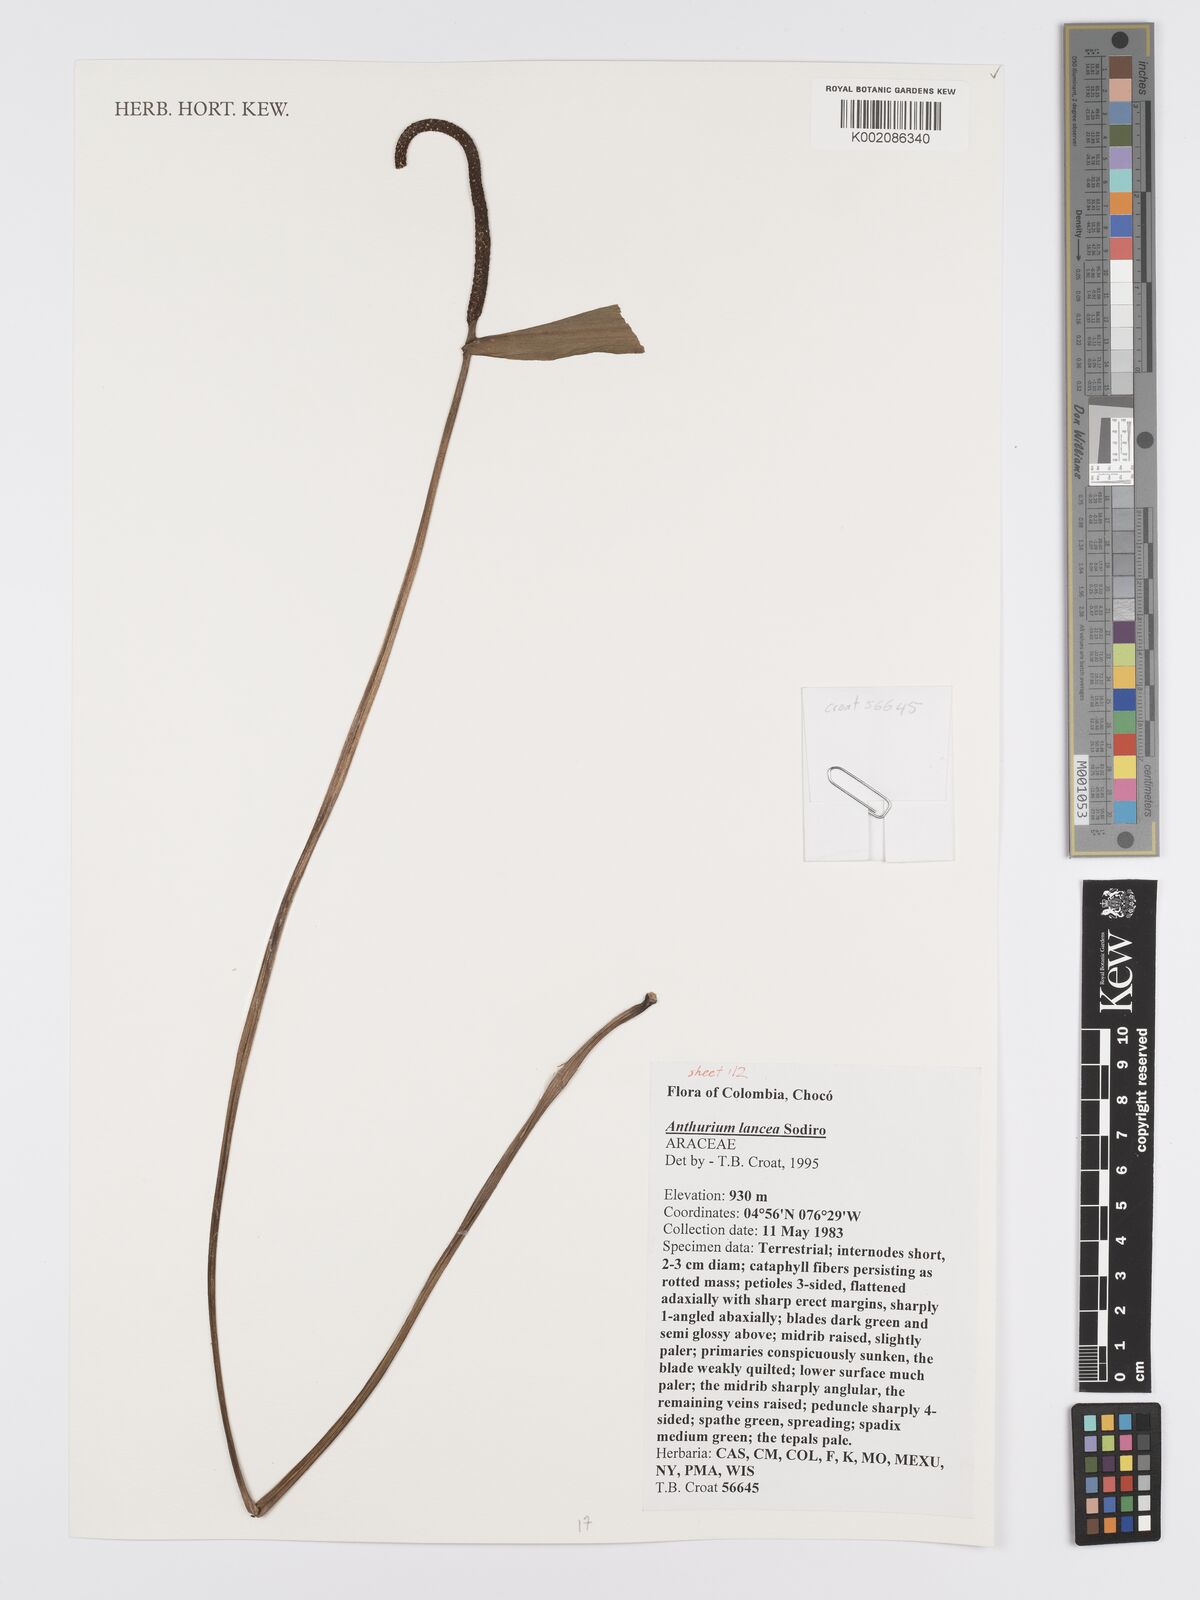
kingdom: Plantae
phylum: Tracheophyta
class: Liliopsida
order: Alismatales
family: Araceae
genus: Anthurium
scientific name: Anthurium lancea
